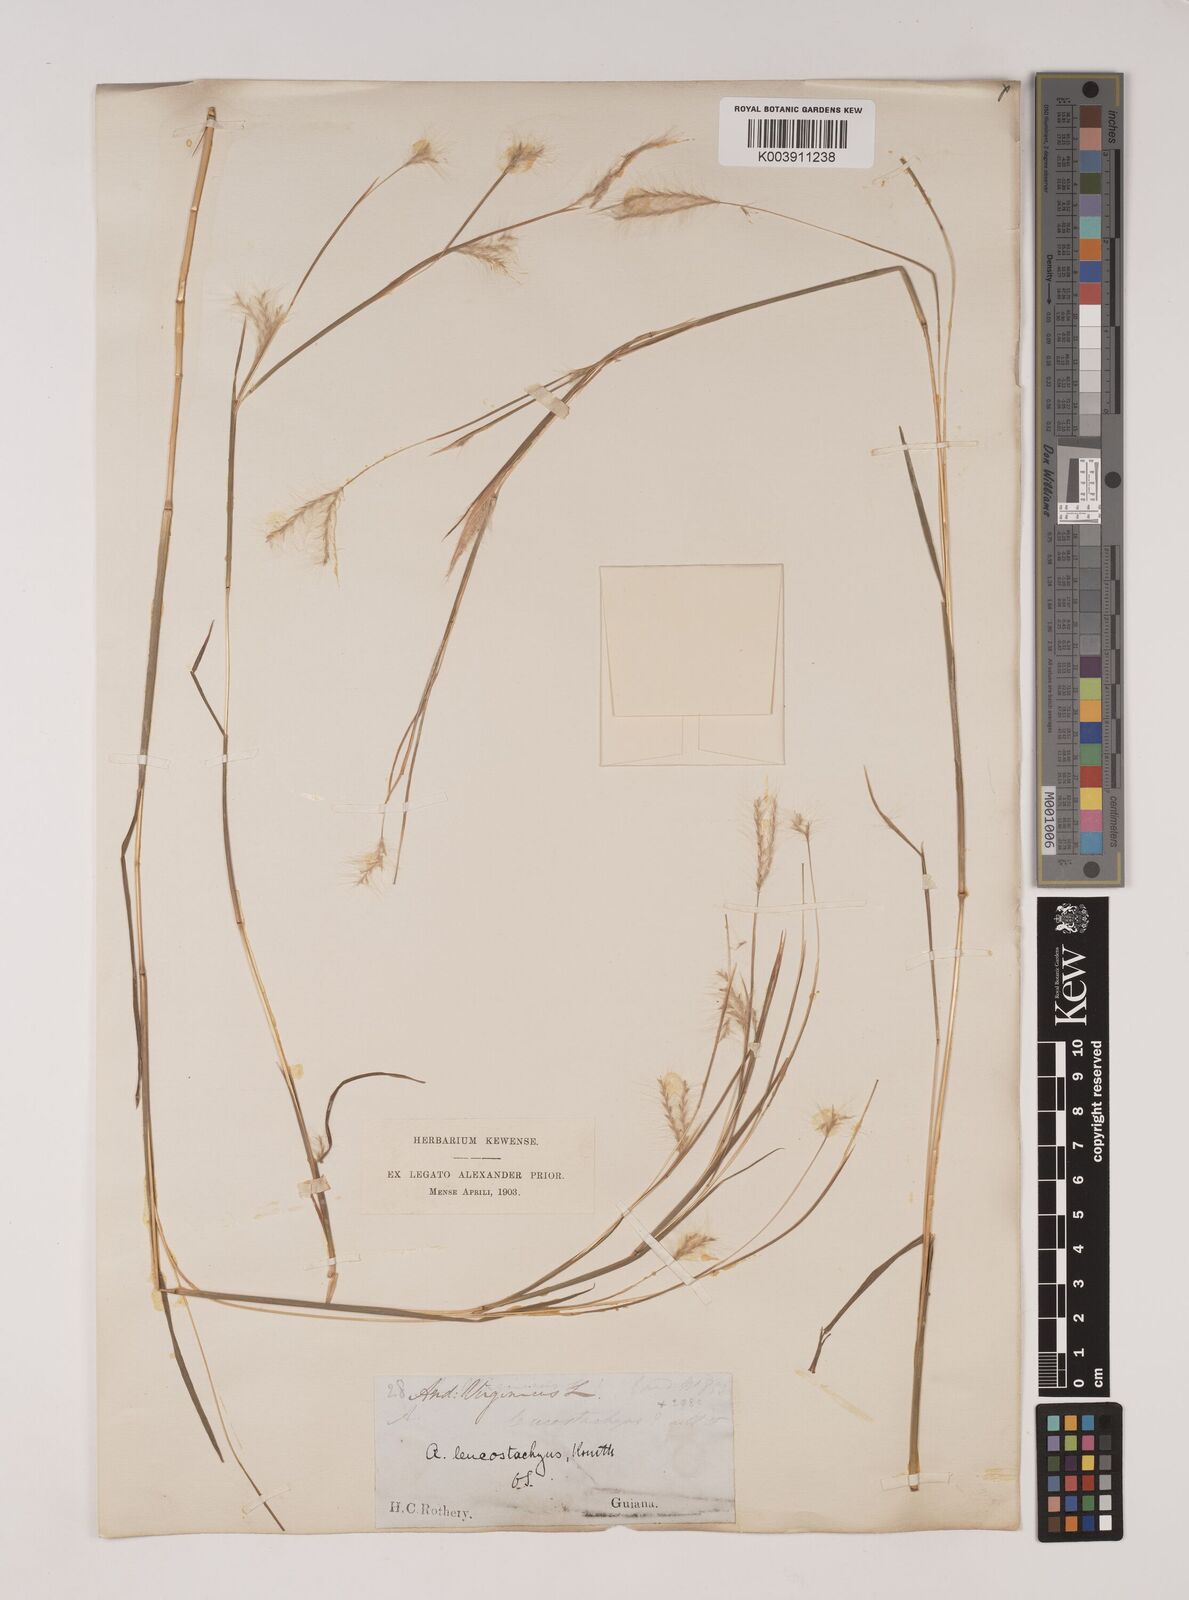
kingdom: Plantae
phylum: Tracheophyta
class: Liliopsida
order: Poales
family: Poaceae
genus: Andropogon
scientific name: Andropogon leucostachyus
